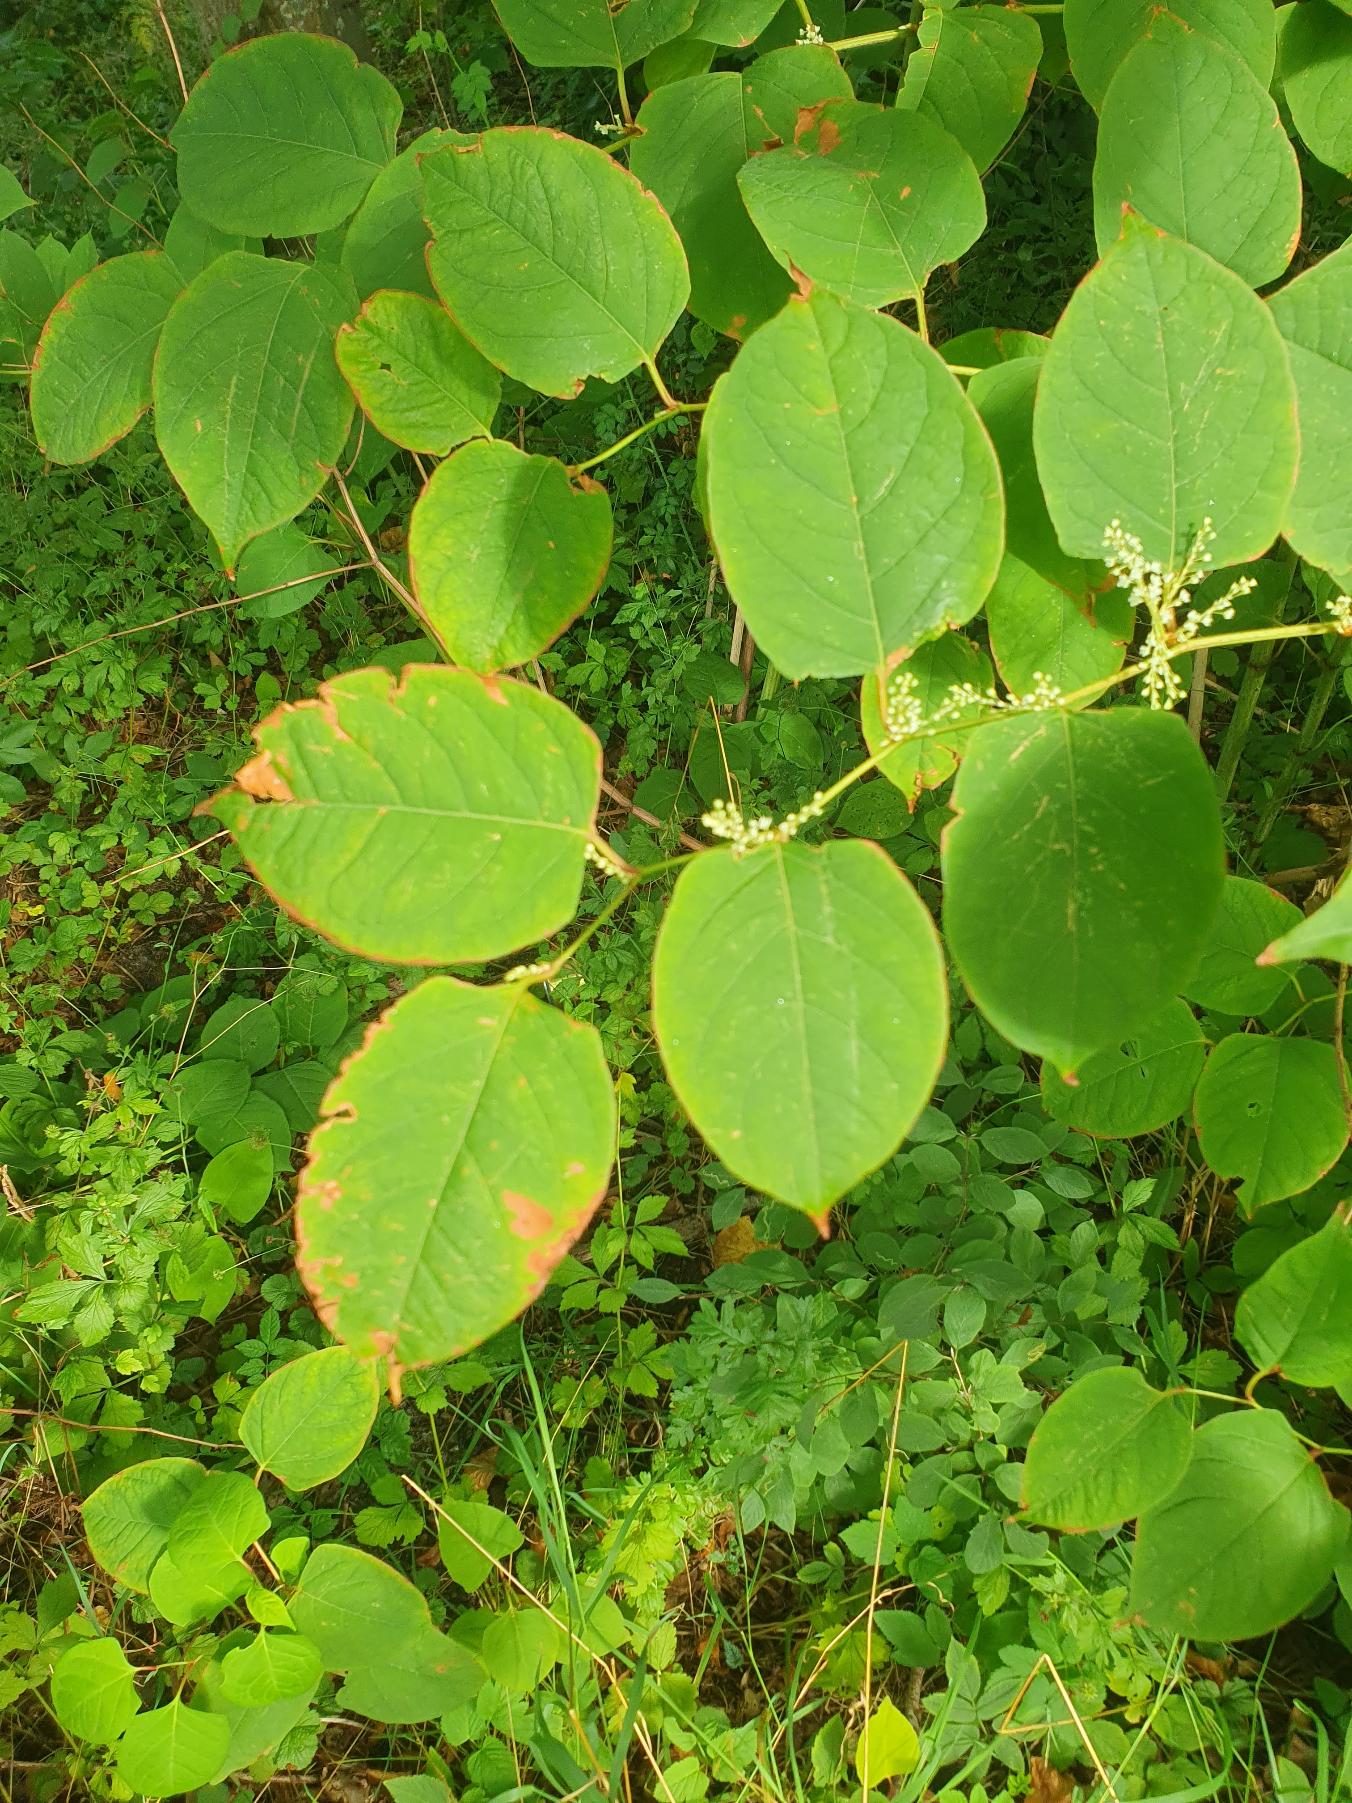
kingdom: Plantae
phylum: Tracheophyta
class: Magnoliopsida
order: Caryophyllales
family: Polygonaceae
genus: Reynoutria
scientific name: Reynoutria japonica
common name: Japan-pileurt
